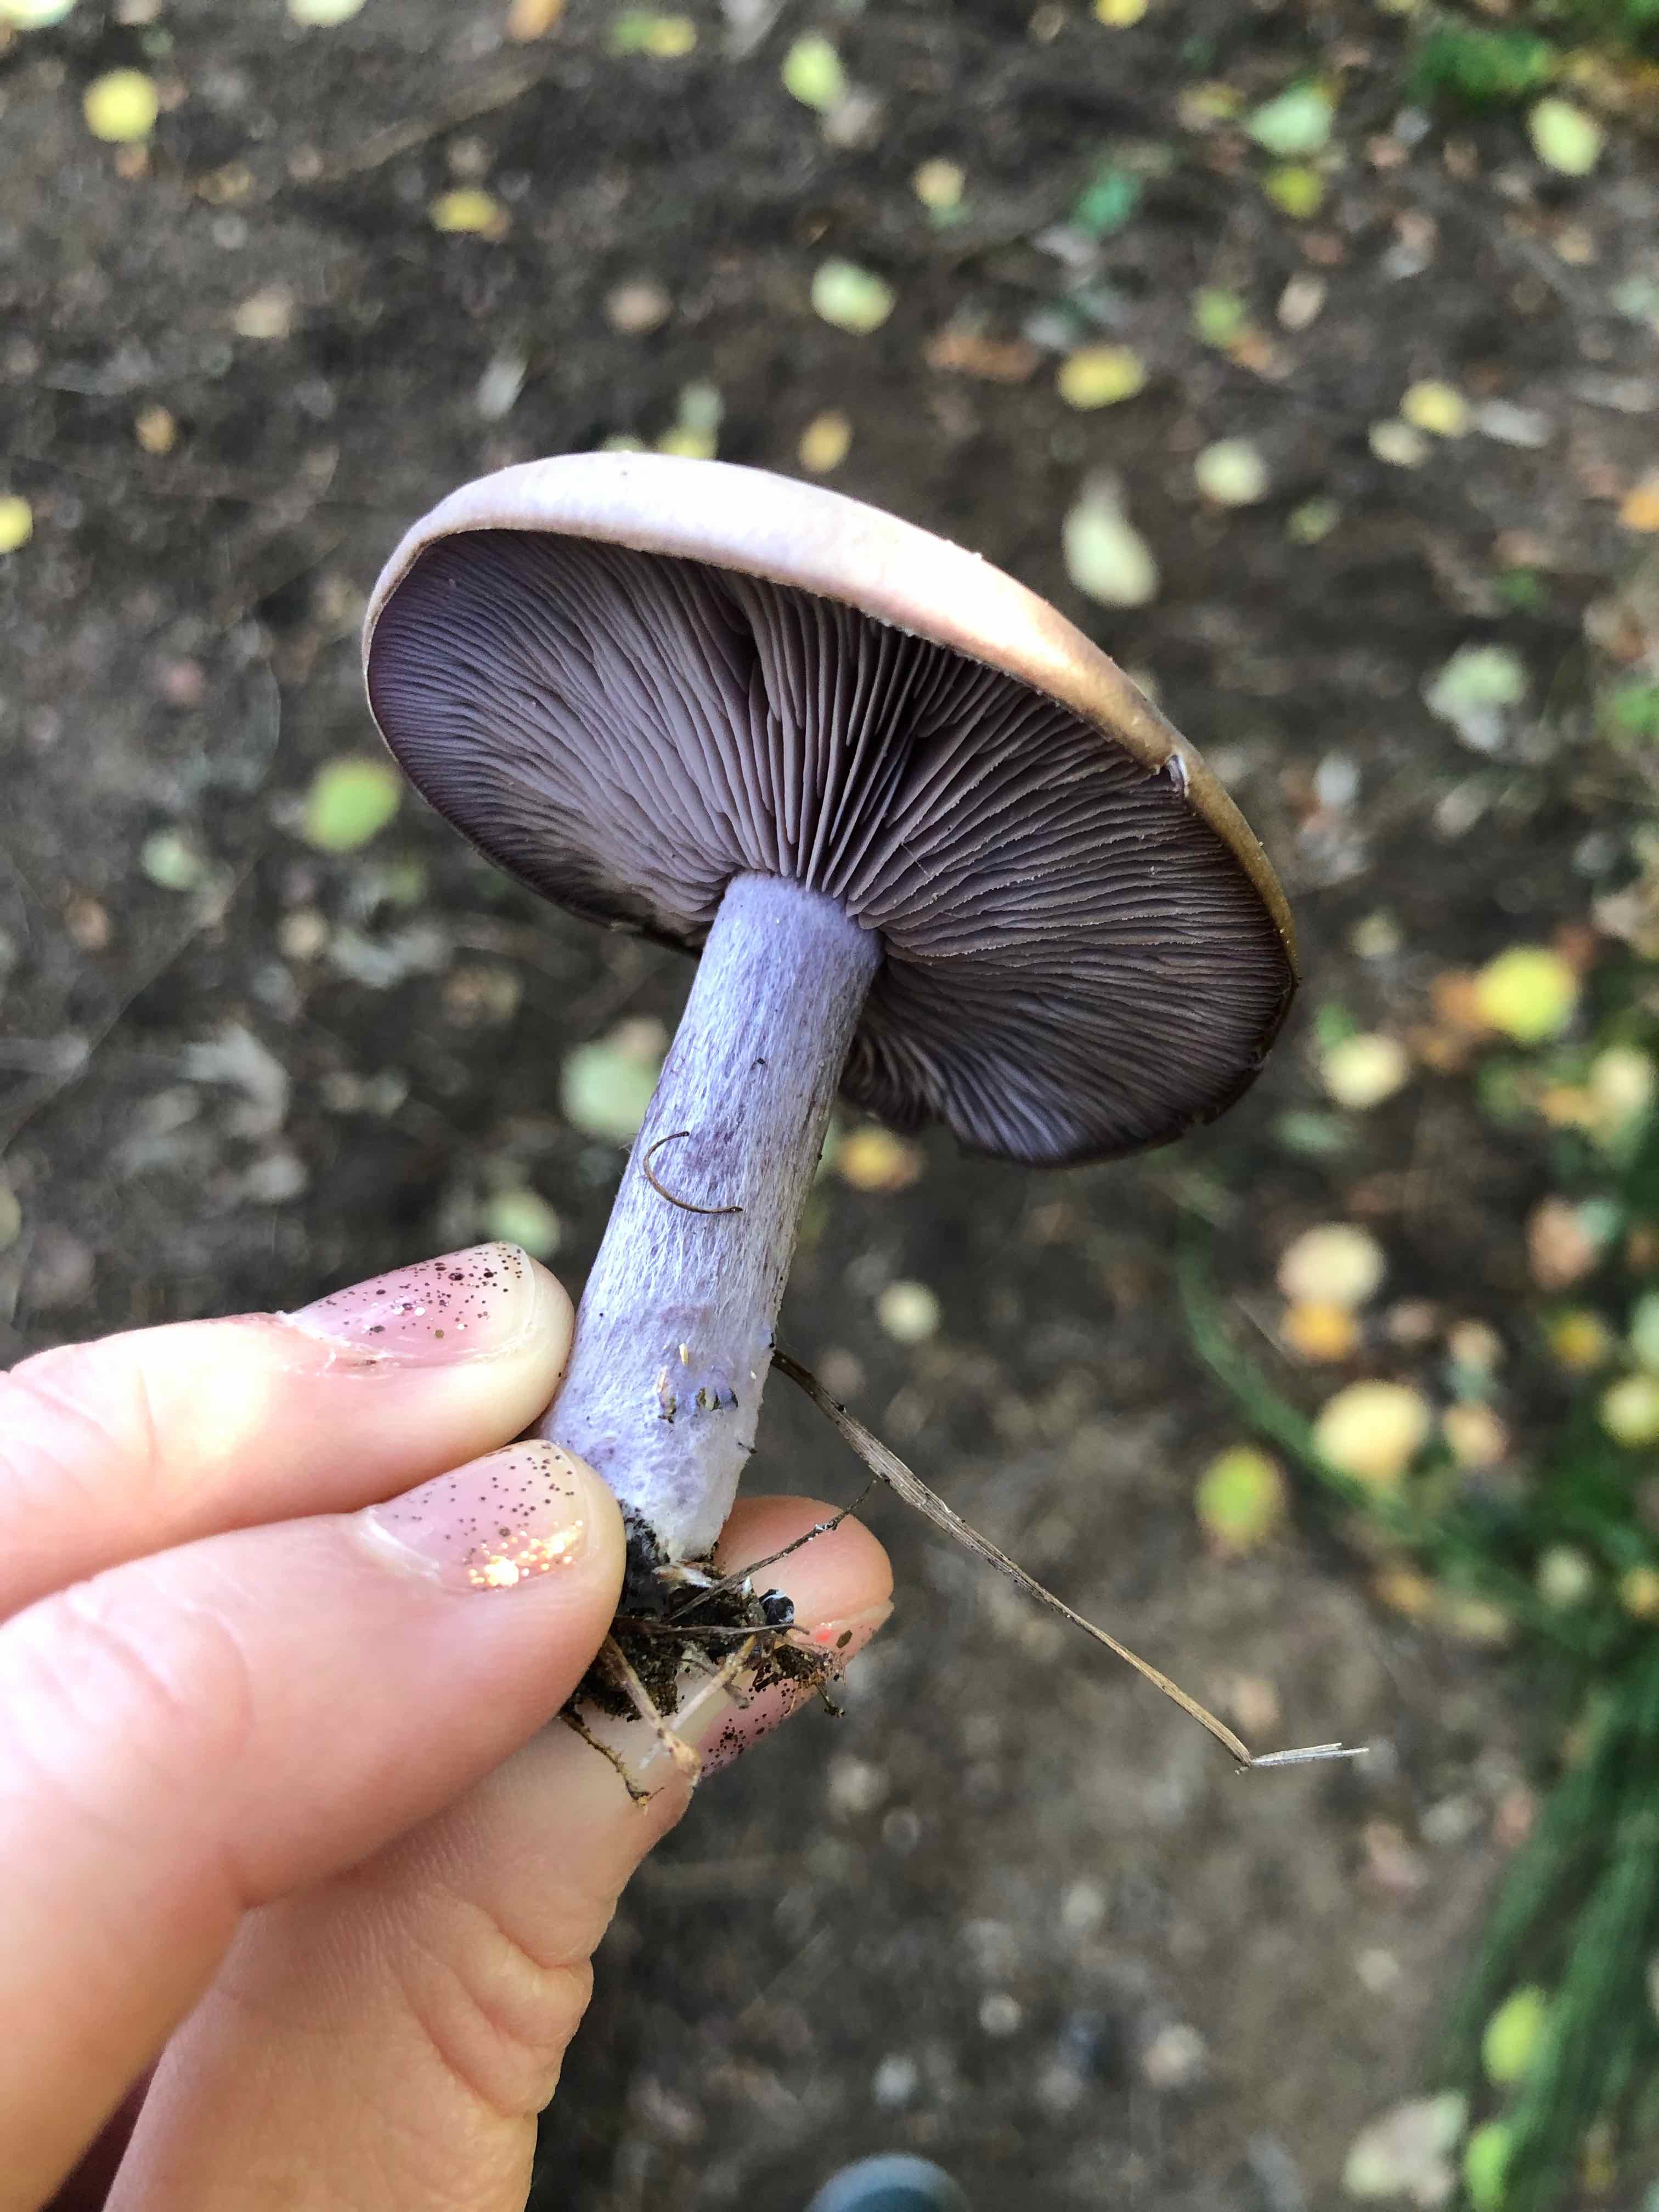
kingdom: Fungi
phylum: Basidiomycota
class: Agaricomycetes
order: Agaricales
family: Tricholomataceae
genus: Lepista
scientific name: Lepista nuda
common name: violet hekseringshat
